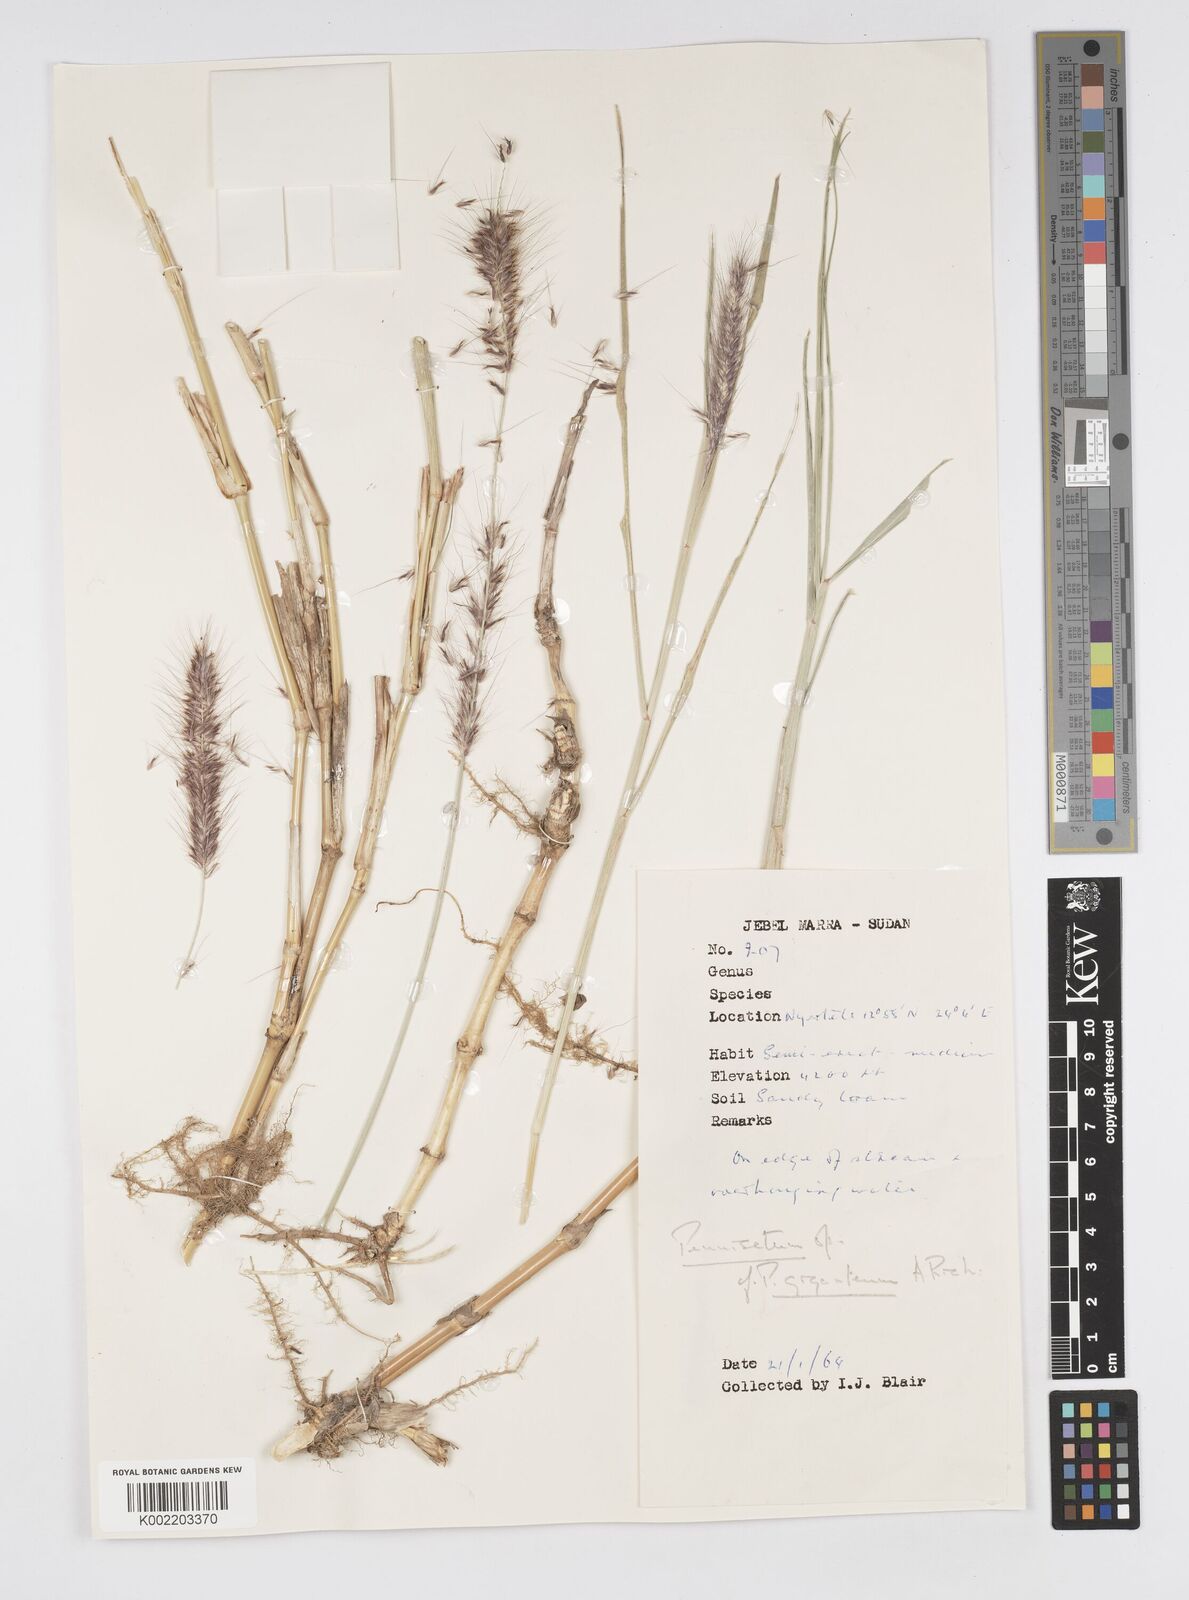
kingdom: Plantae
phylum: Tracheophyta
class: Liliopsida
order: Poales
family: Poaceae
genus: Cenchrus
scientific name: Cenchrus caudatus
